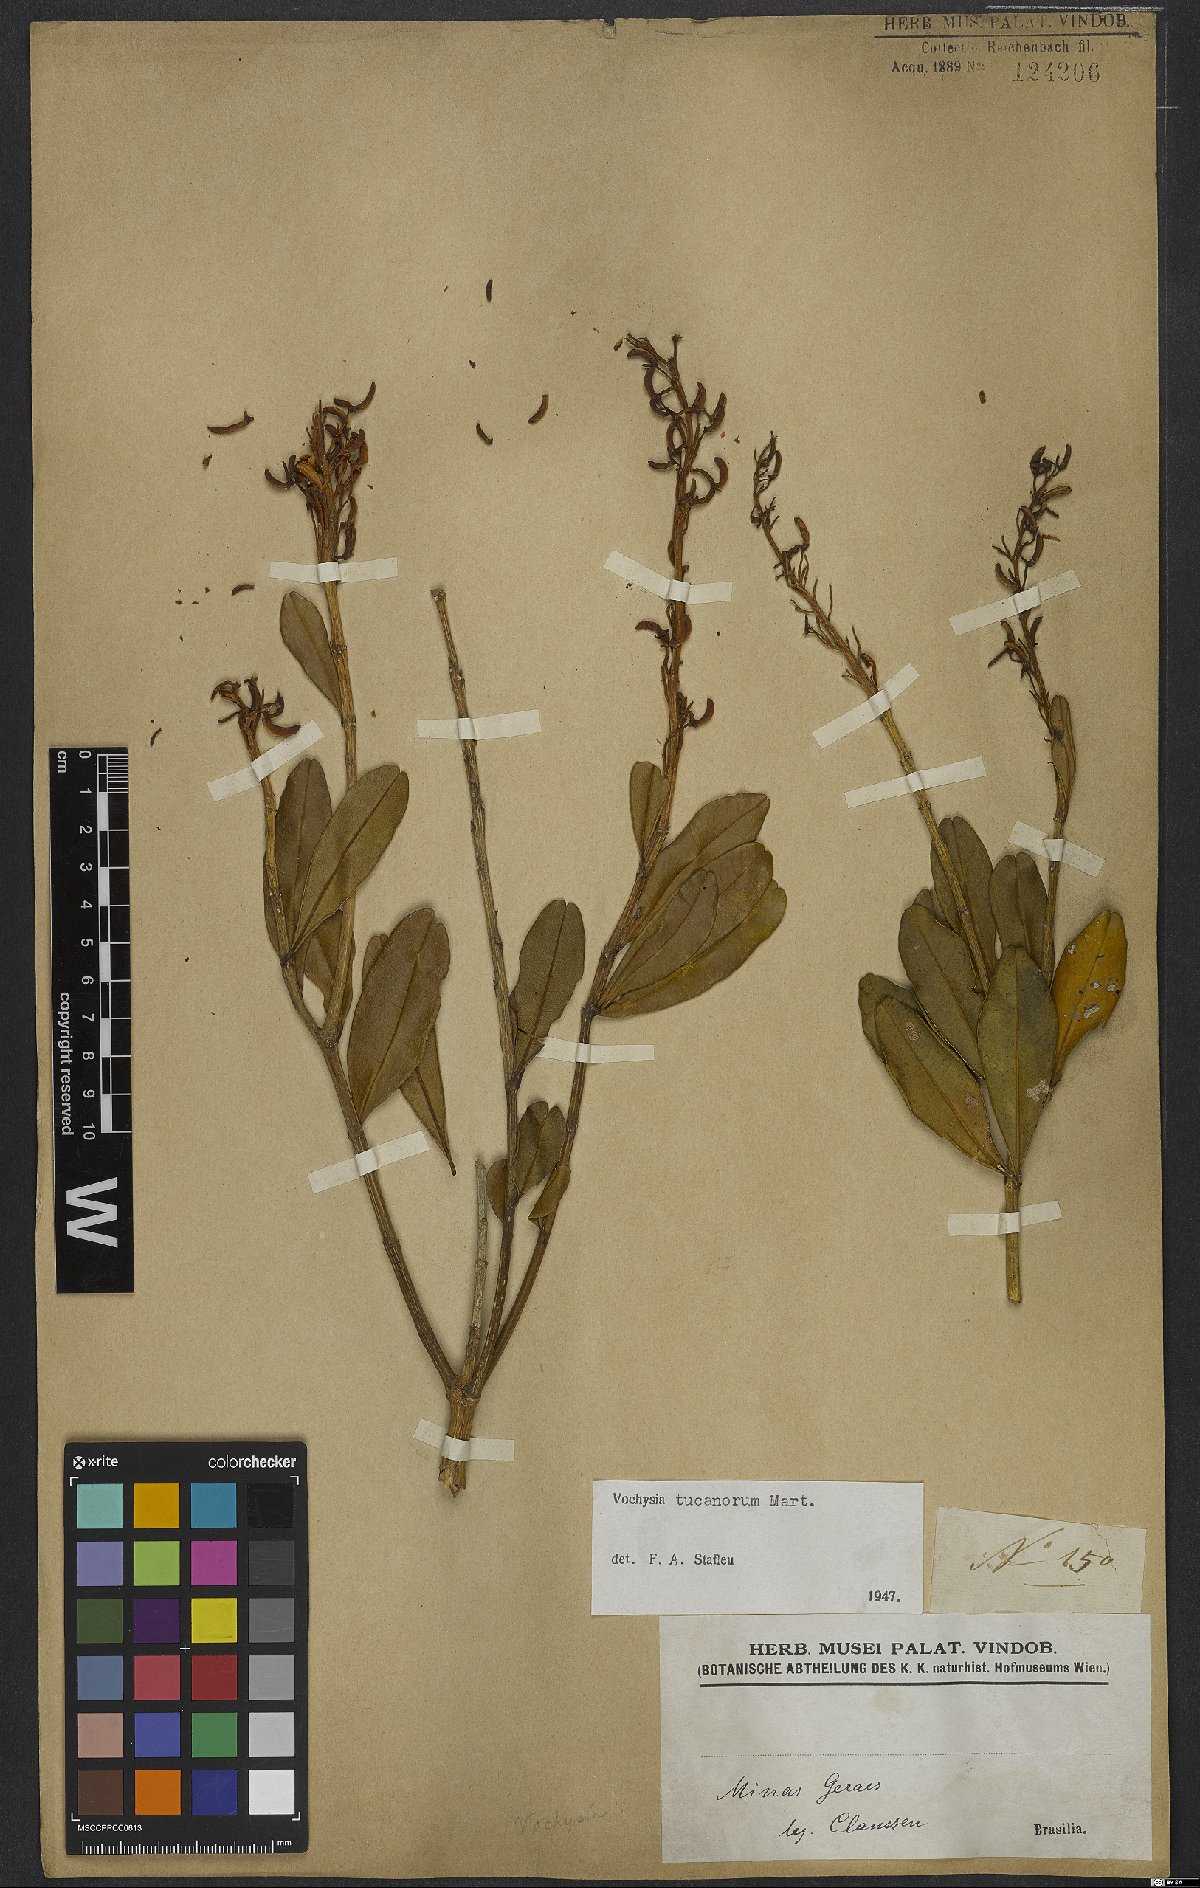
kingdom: Plantae
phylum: Tracheophyta
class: Magnoliopsida
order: Myrtales
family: Vochysiaceae
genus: Vochysia
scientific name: Vochysia tucanorum
